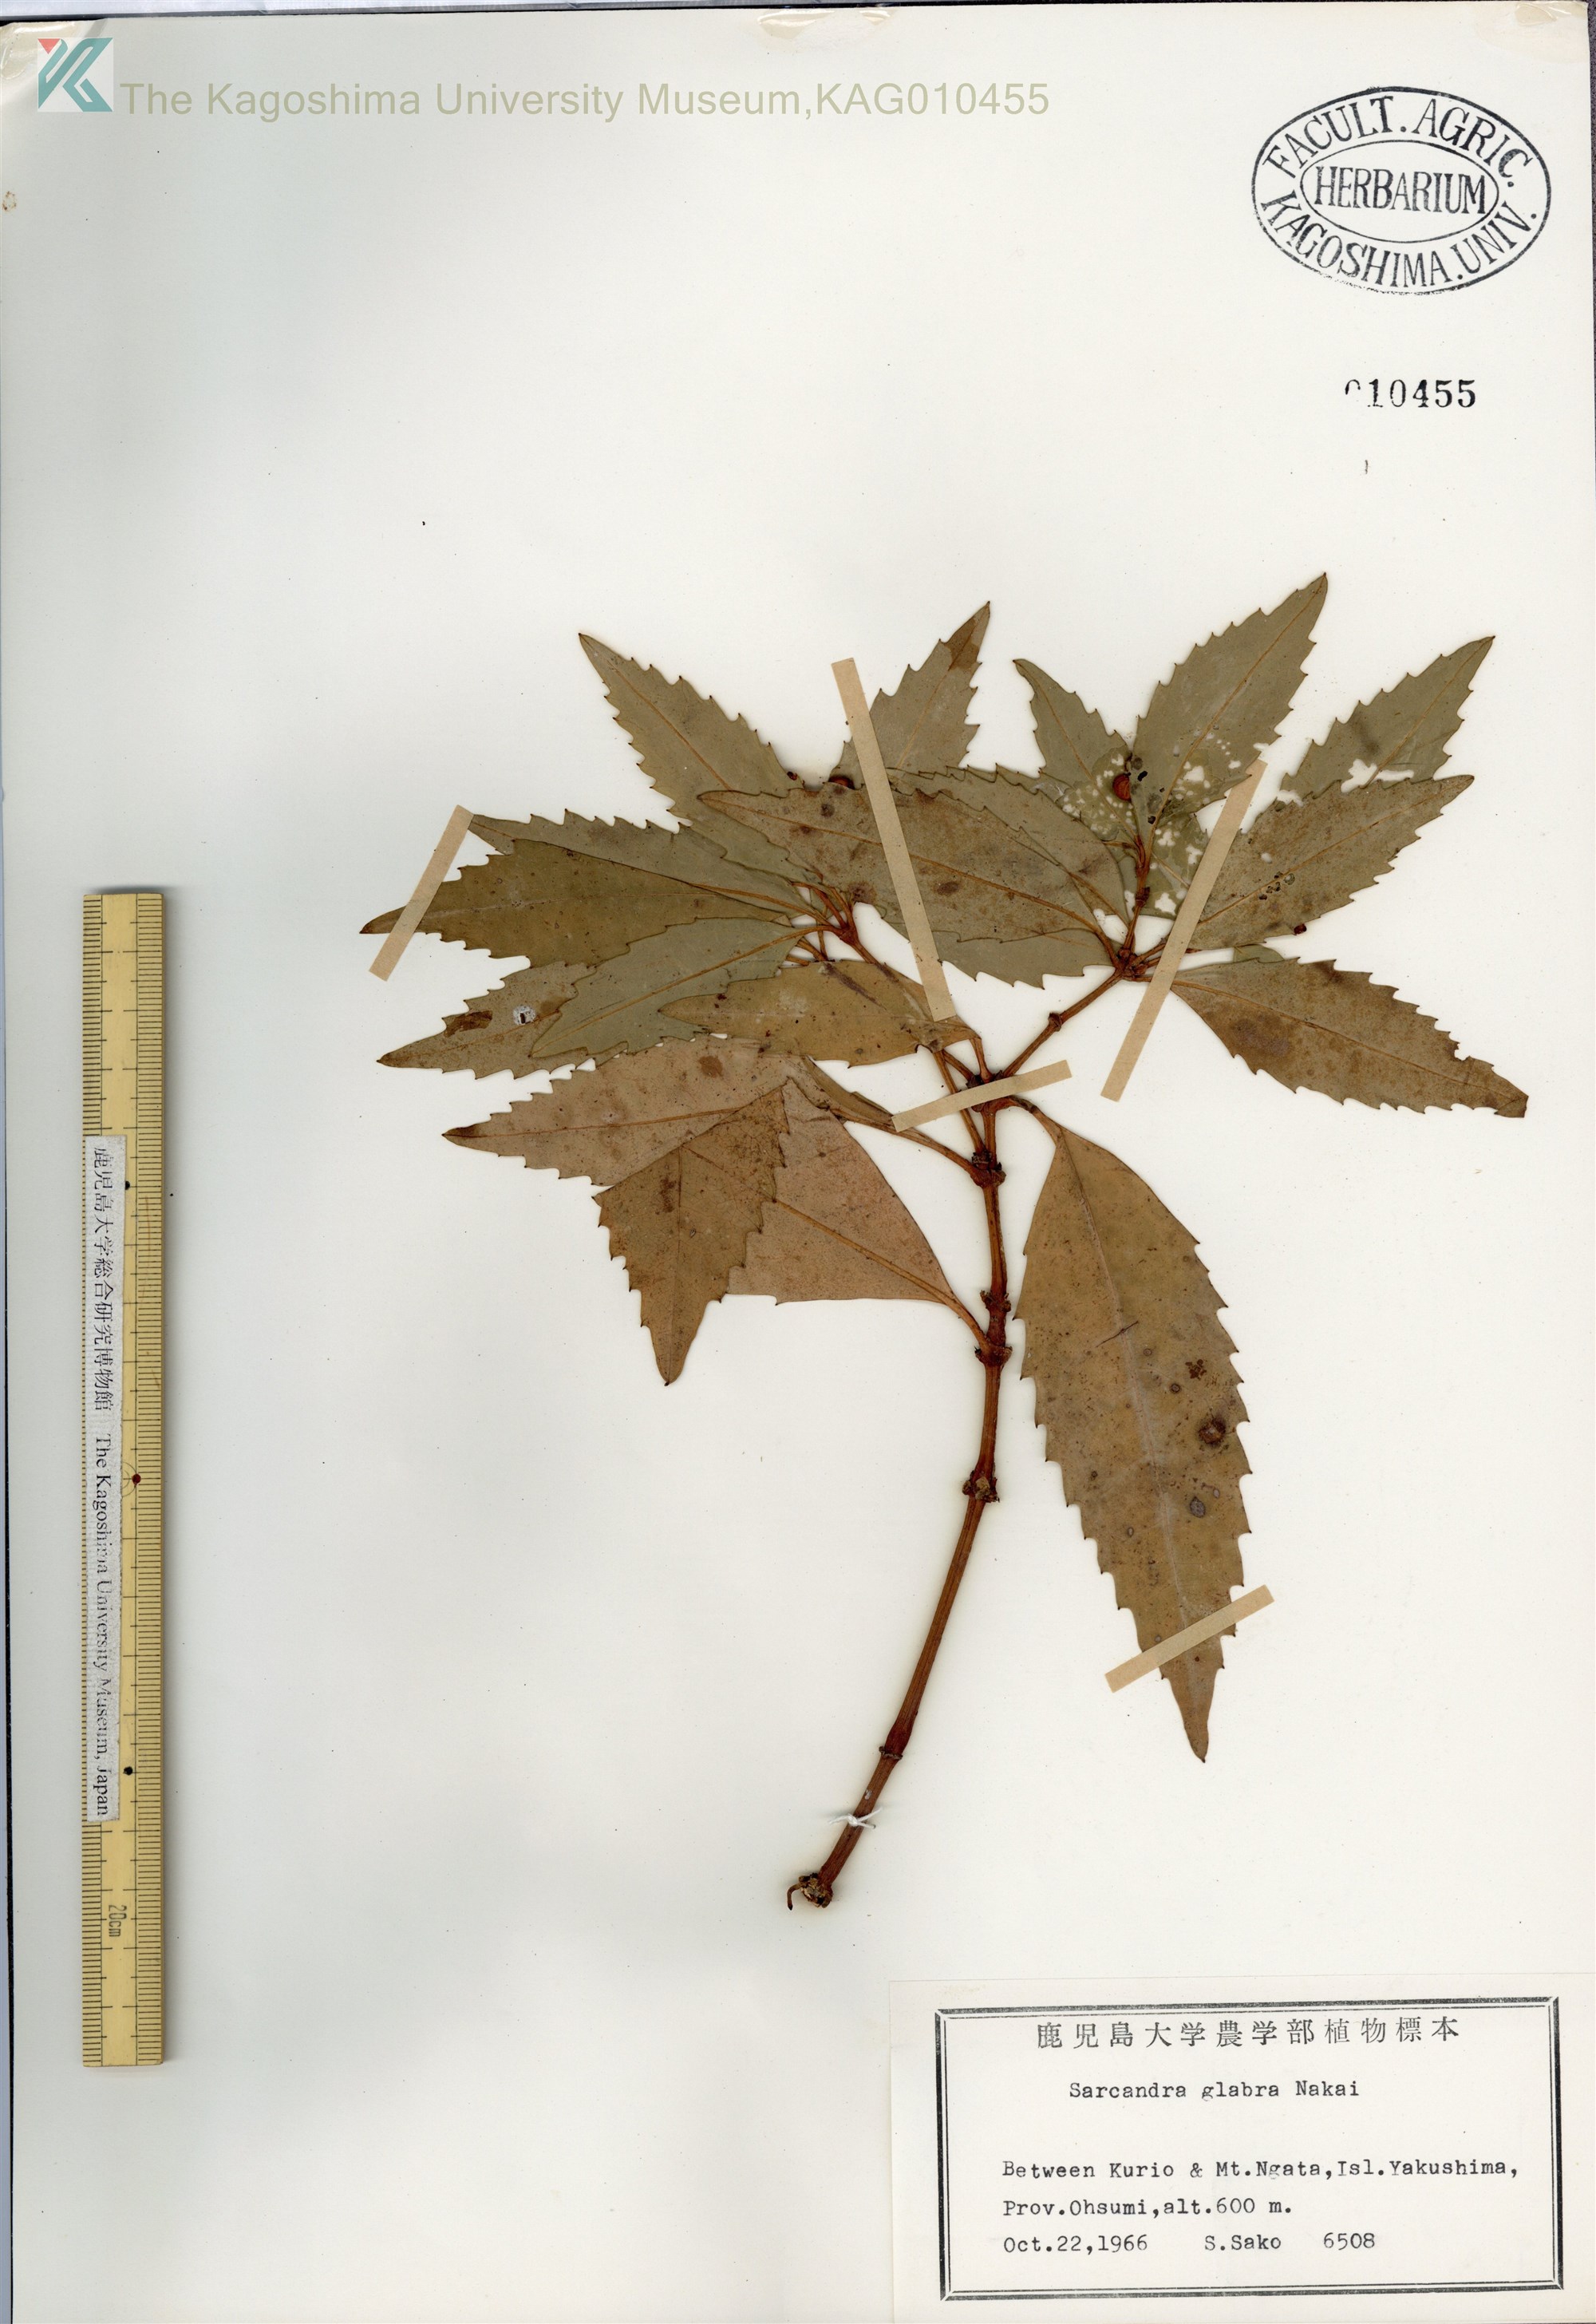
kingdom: Plantae
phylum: Tracheophyta
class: Magnoliopsida
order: Chloranthales
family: Chloranthaceae
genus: Sarcandra
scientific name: Sarcandra glabra
